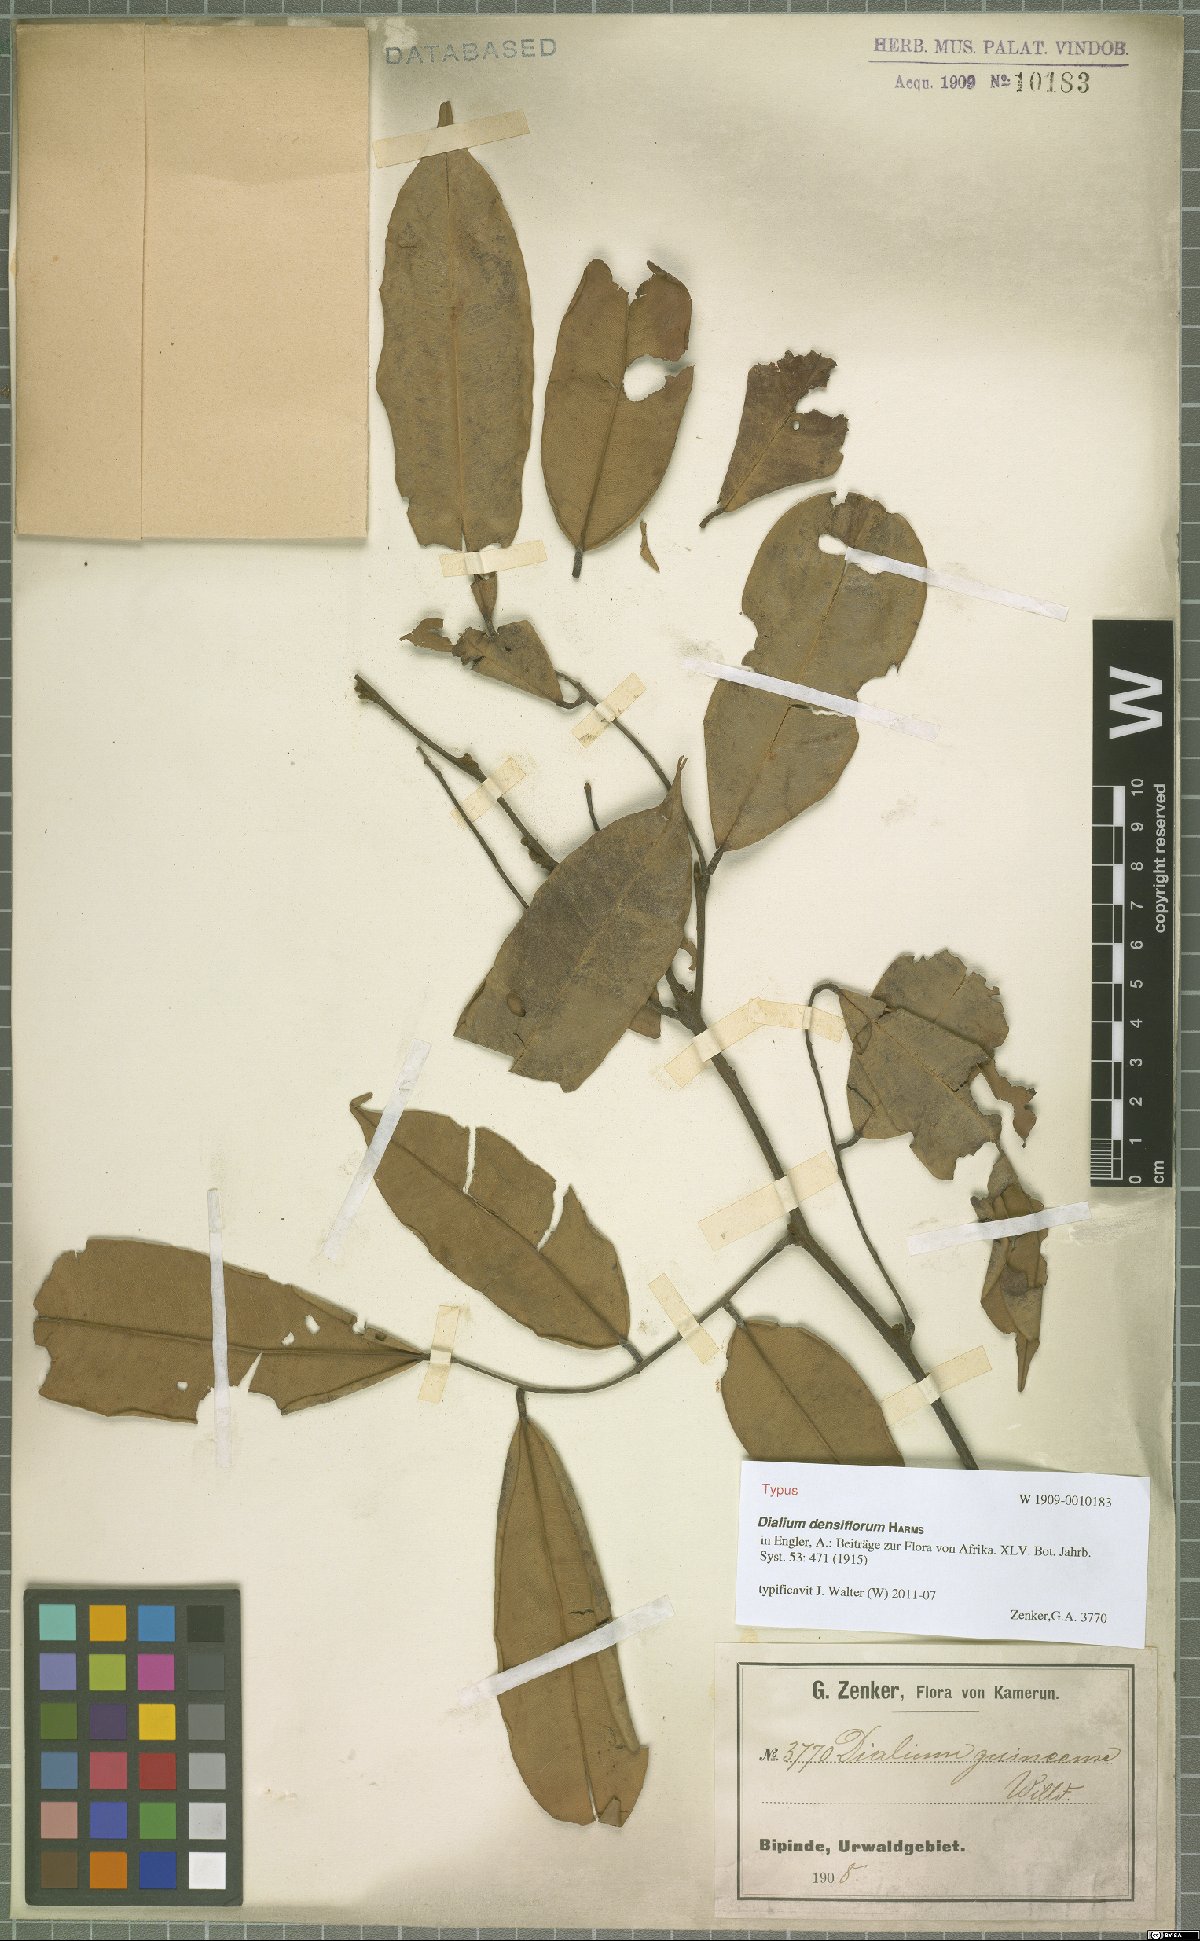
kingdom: Plantae
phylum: Tracheophyta
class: Magnoliopsida
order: Fabales
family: Fabaceae
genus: Dialium
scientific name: Dialium zenkeri
